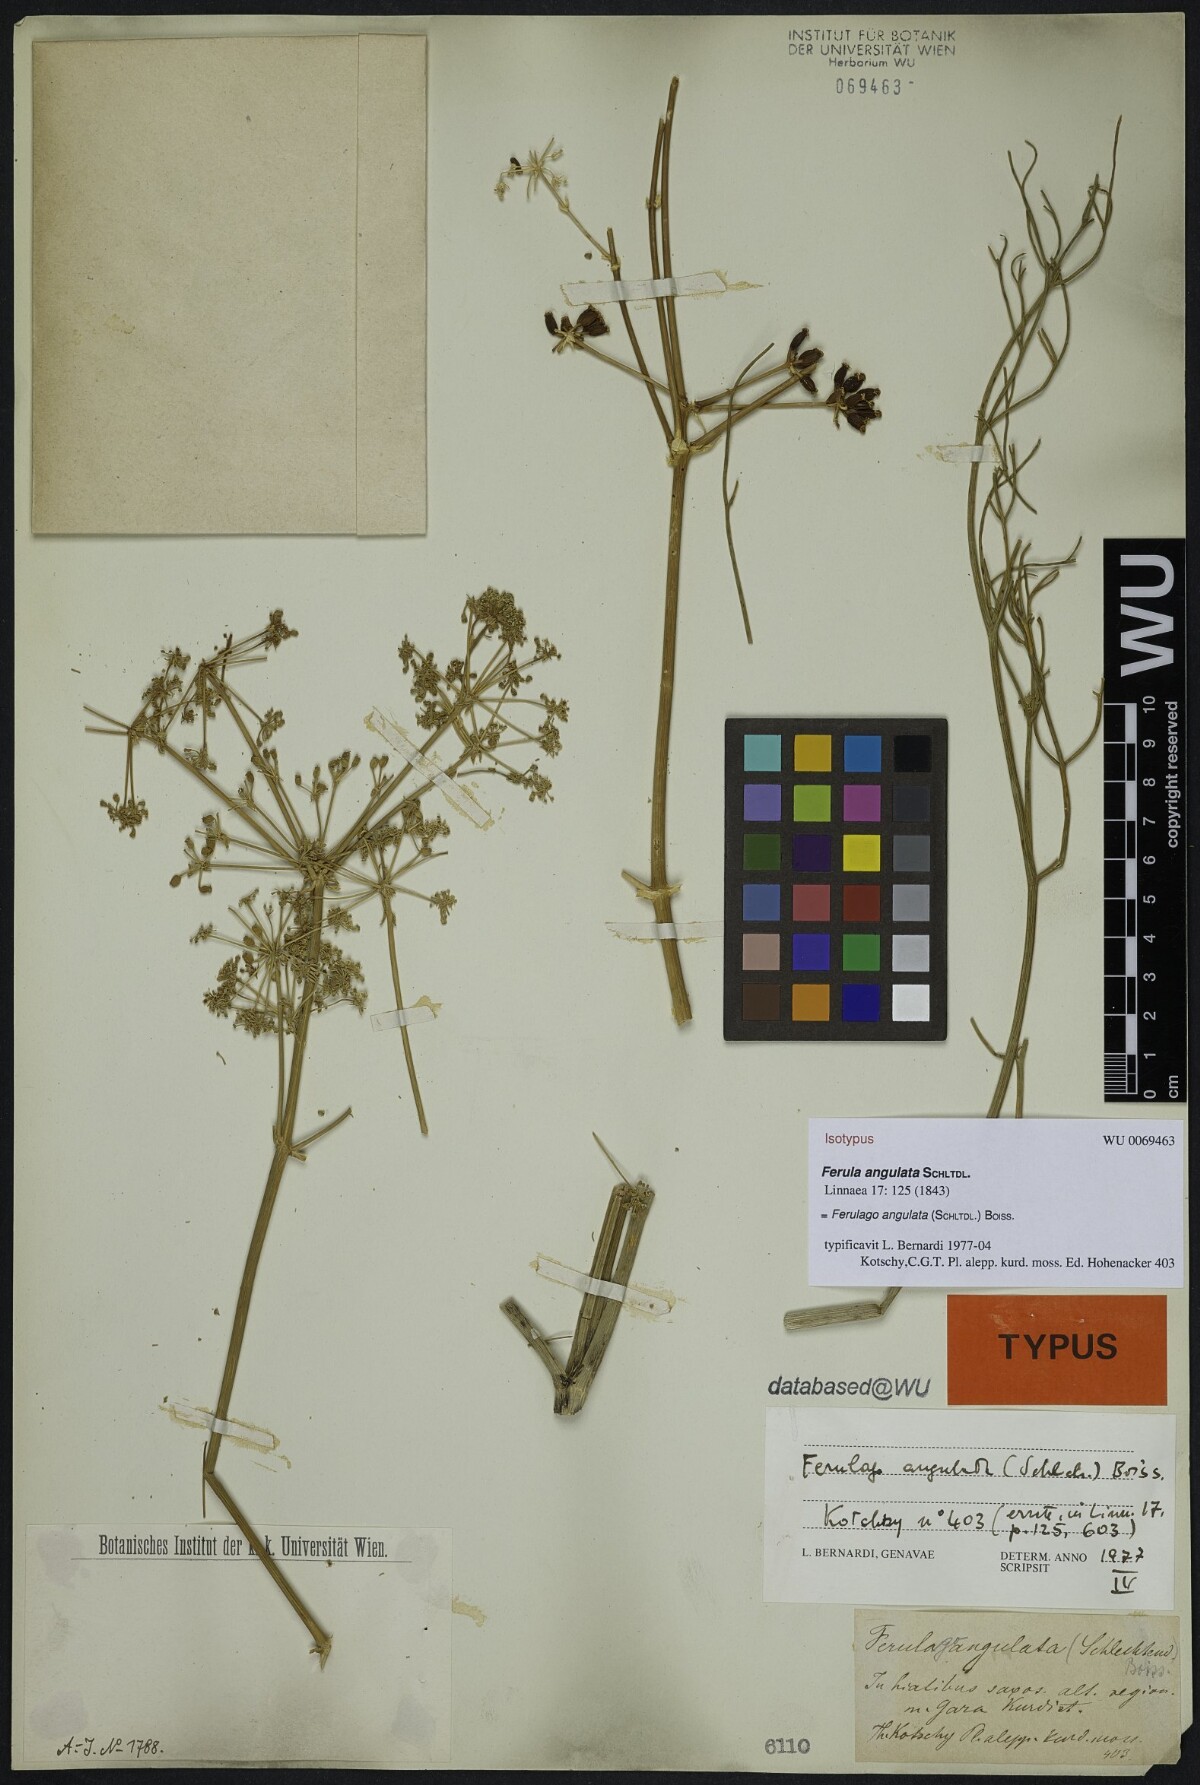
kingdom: Plantae
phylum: Tracheophyta
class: Magnoliopsida
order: Apiales
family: Apiaceae
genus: Ferulago
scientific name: Ferulago angulata
